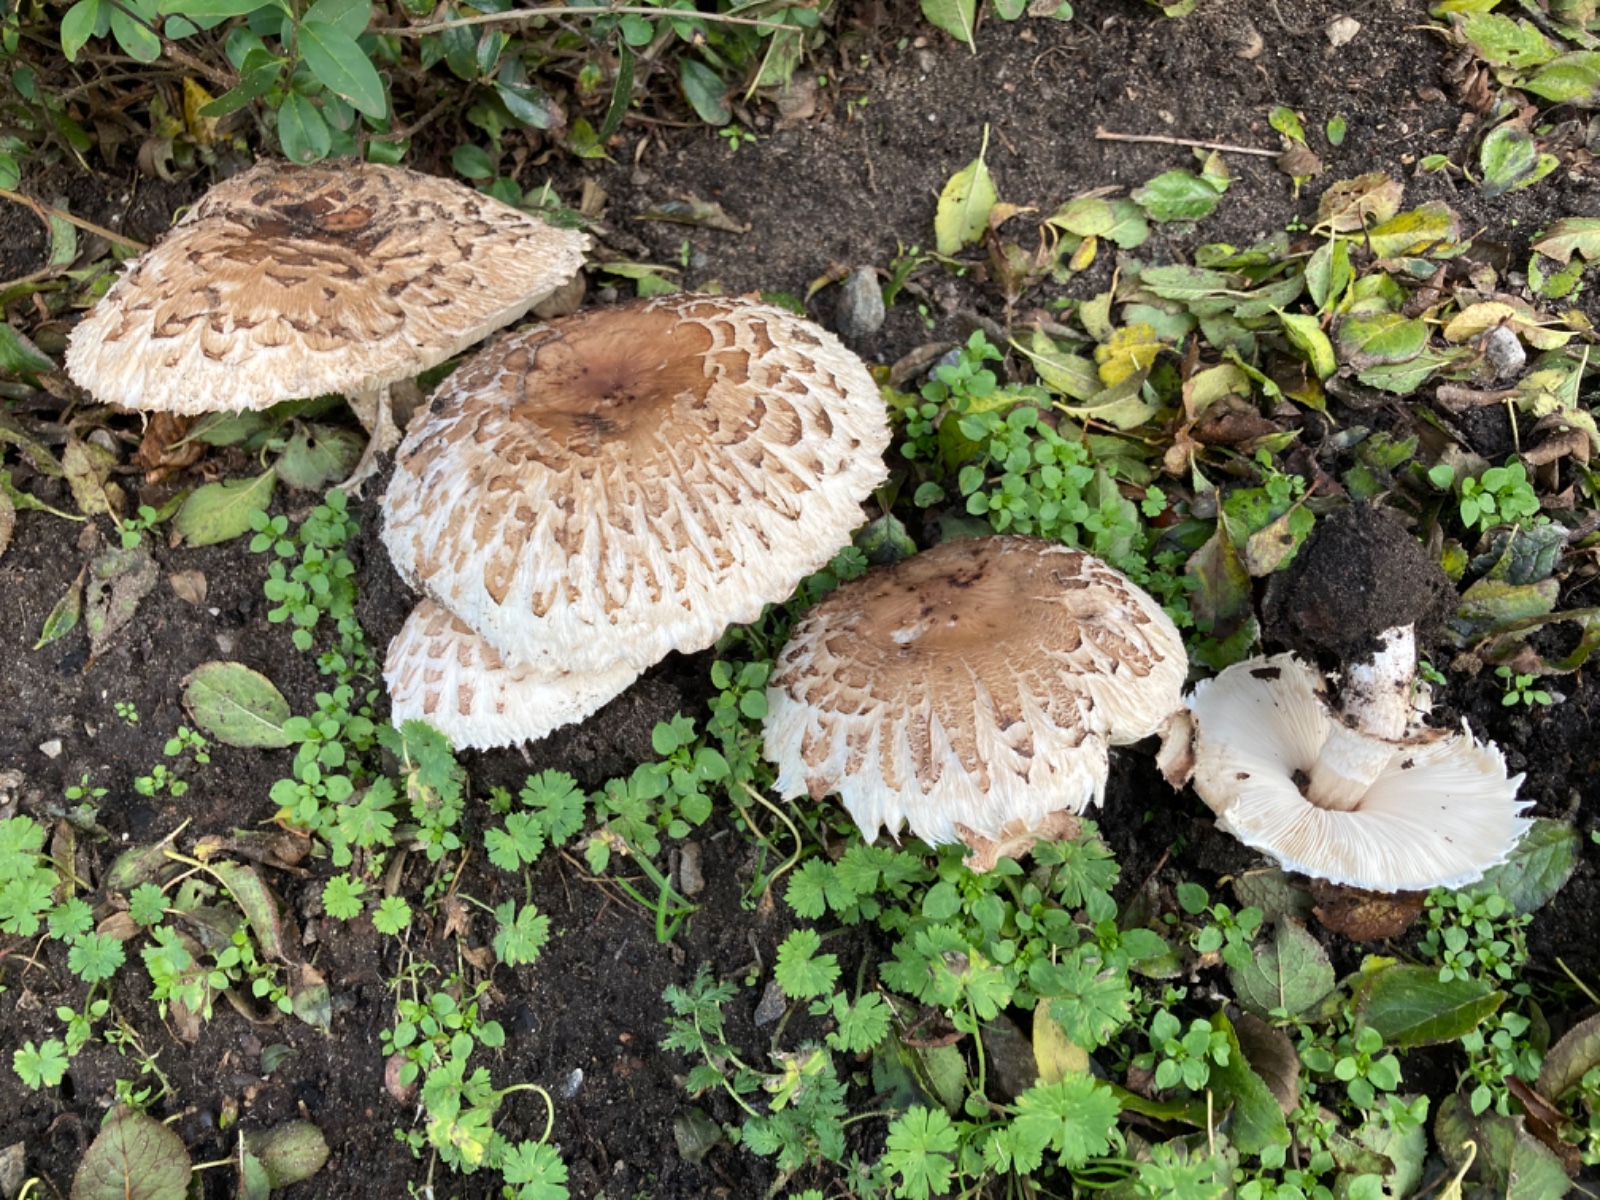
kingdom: Fungi
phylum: Basidiomycota
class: Agaricomycetes
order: Agaricales
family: Agaricaceae
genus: Chlorophyllum
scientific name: Chlorophyllum brunneum
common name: giftig rabarberhat
